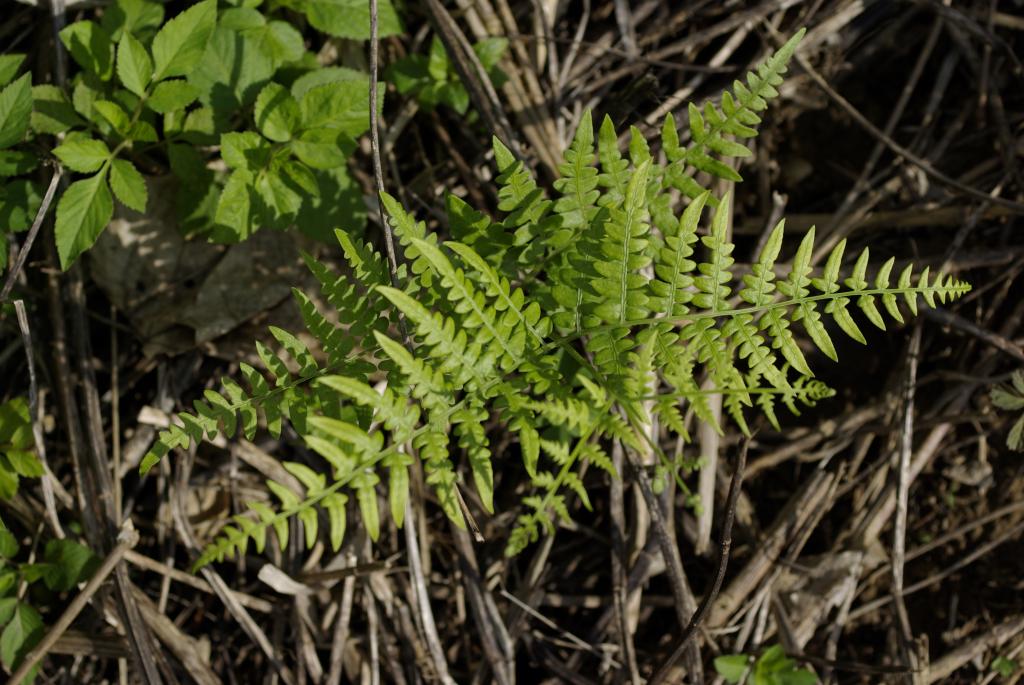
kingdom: Plantae
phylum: Tracheophyta
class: Polypodiopsida
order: Polypodiales
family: Dennstaedtiaceae
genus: Pteridium
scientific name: Pteridium aquilinum
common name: Bracken
